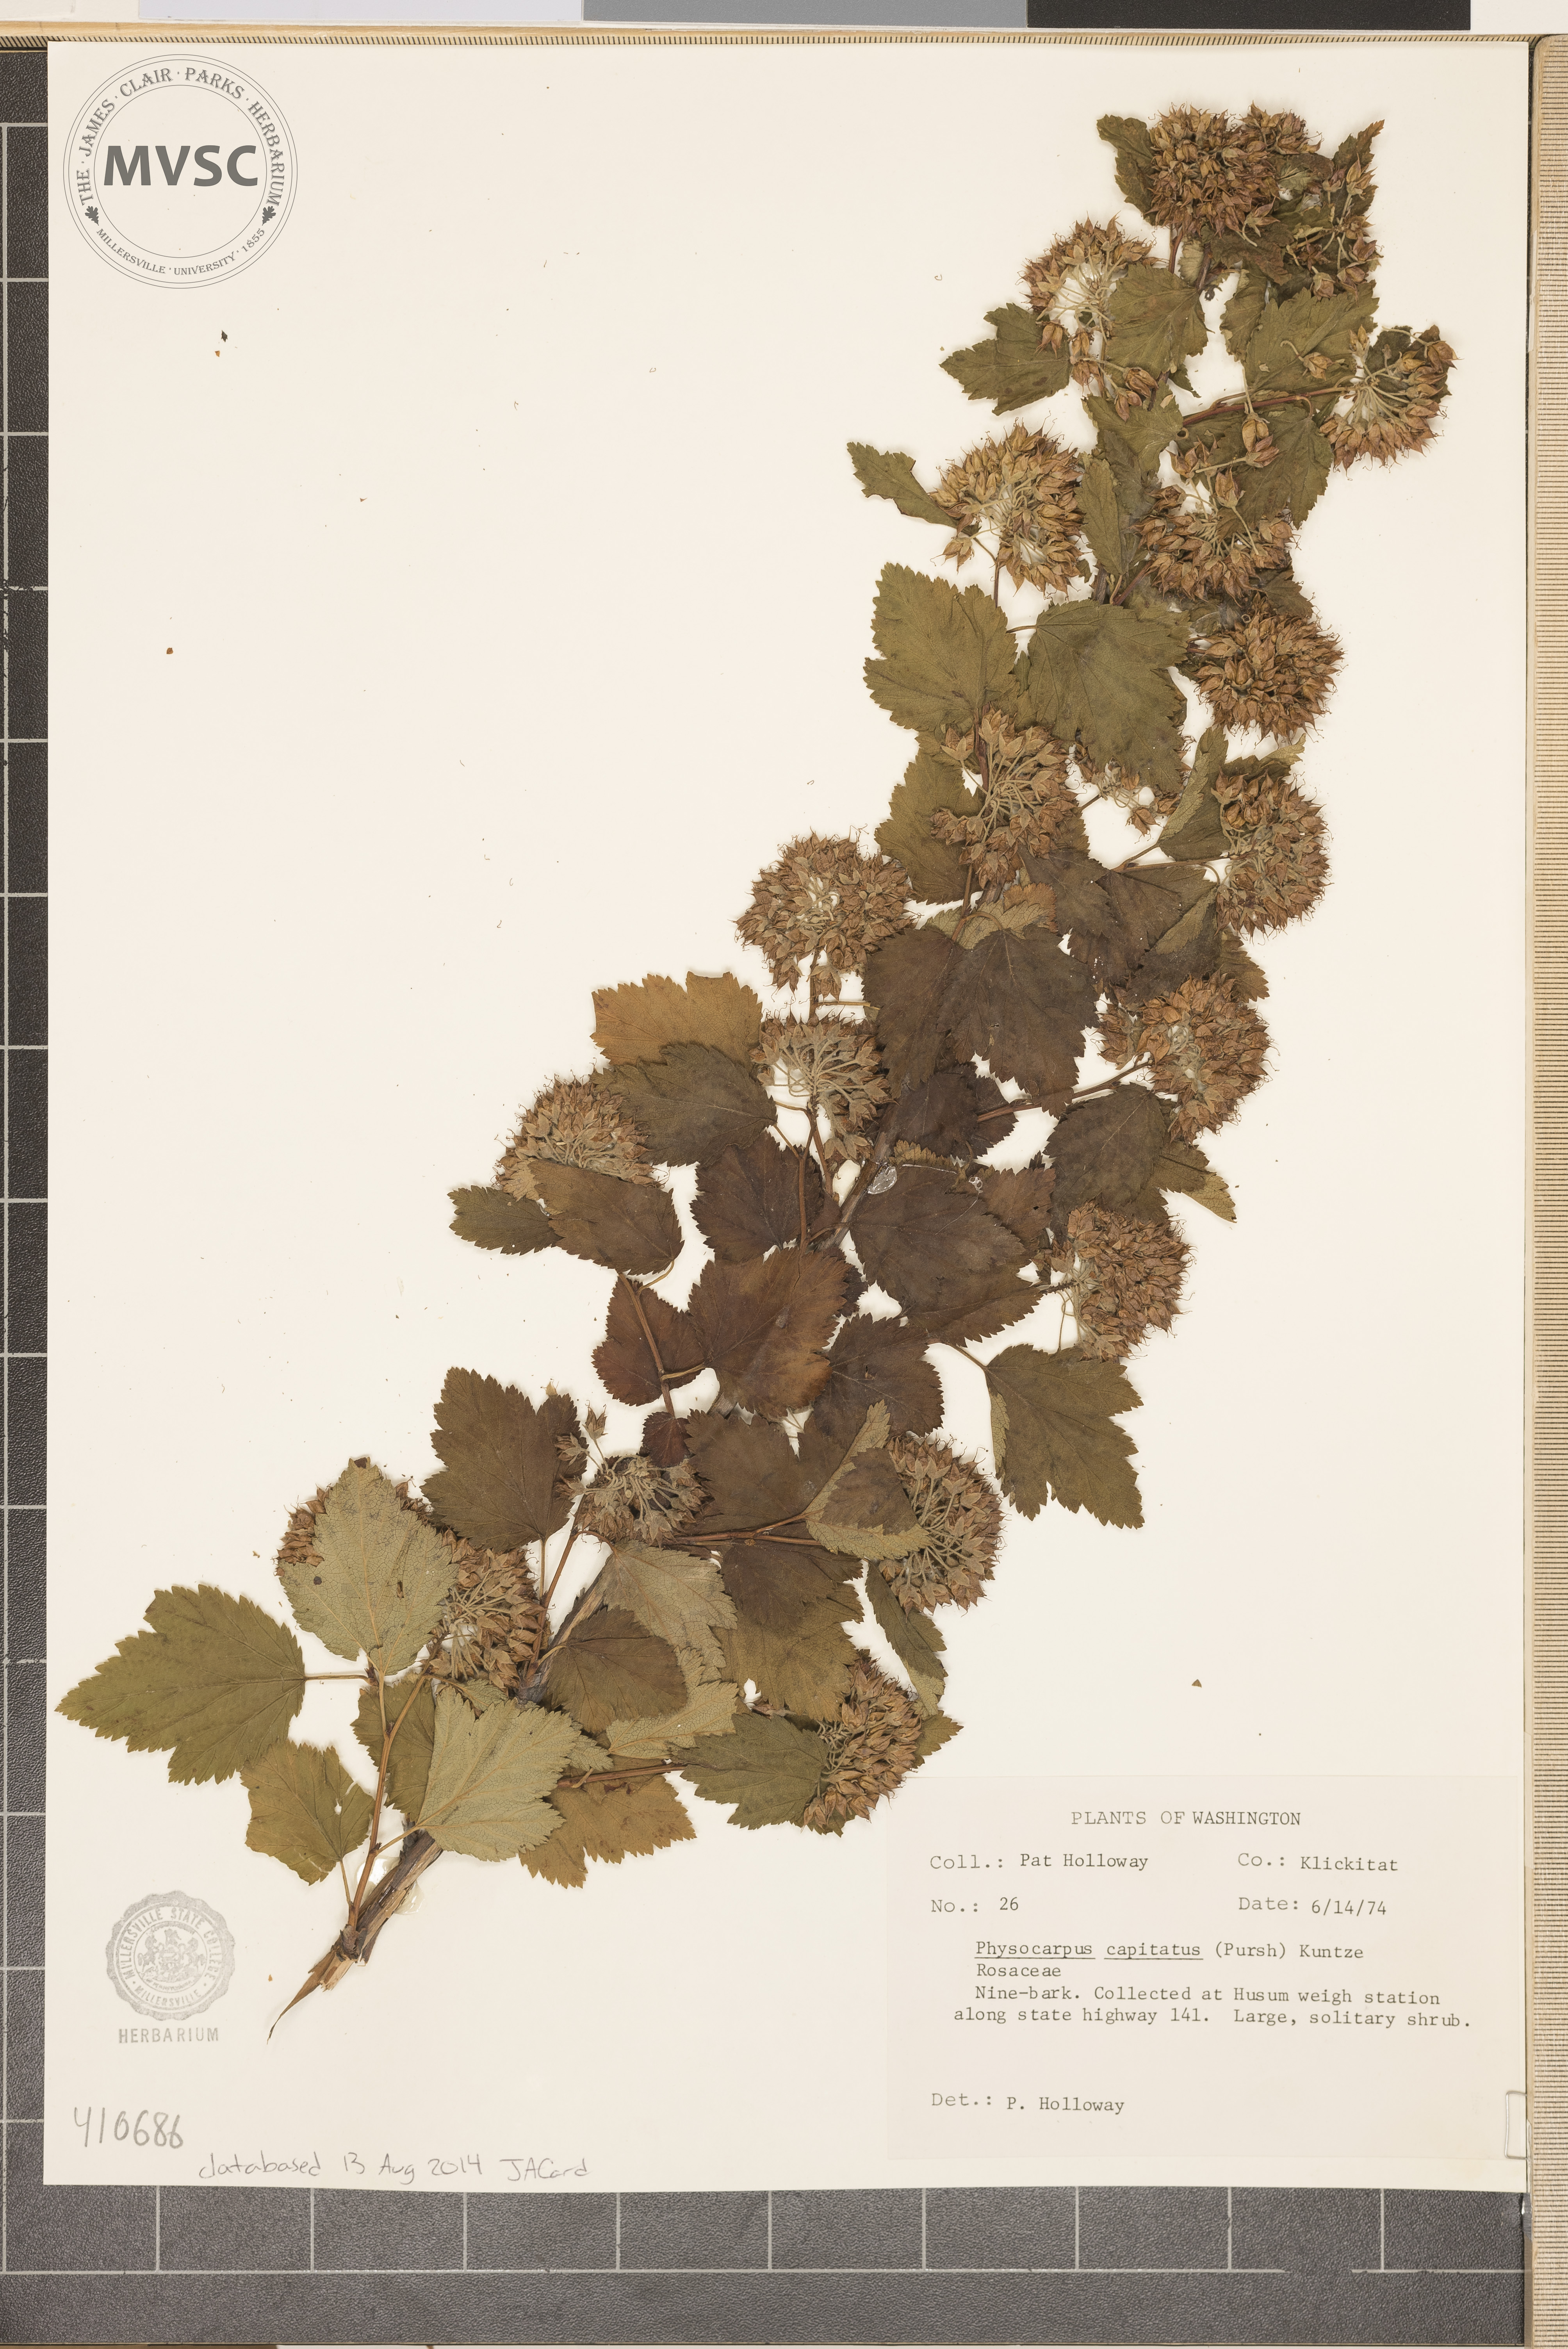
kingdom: Plantae
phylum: Tracheophyta
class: Magnoliopsida
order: Rosales
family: Rosaceae
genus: Physocarpus
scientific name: Physocarpus capitatus
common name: Pacific ninebark
